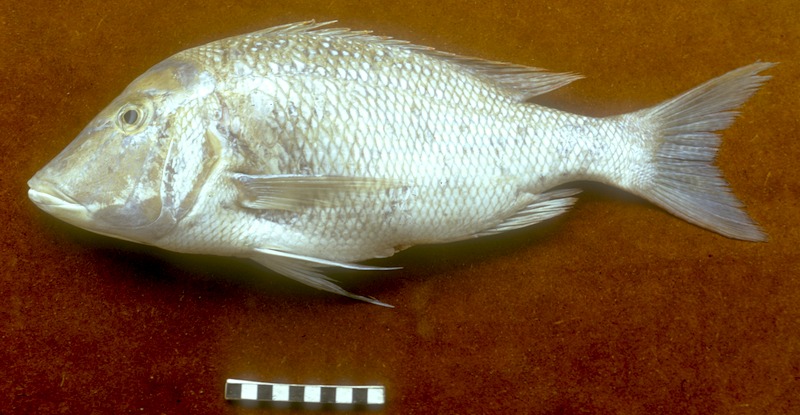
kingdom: Animalia
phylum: Chordata
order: Perciformes
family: Lethrinidae
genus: Lethrinus
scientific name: Lethrinus nebulosus
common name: Spangled emperor
